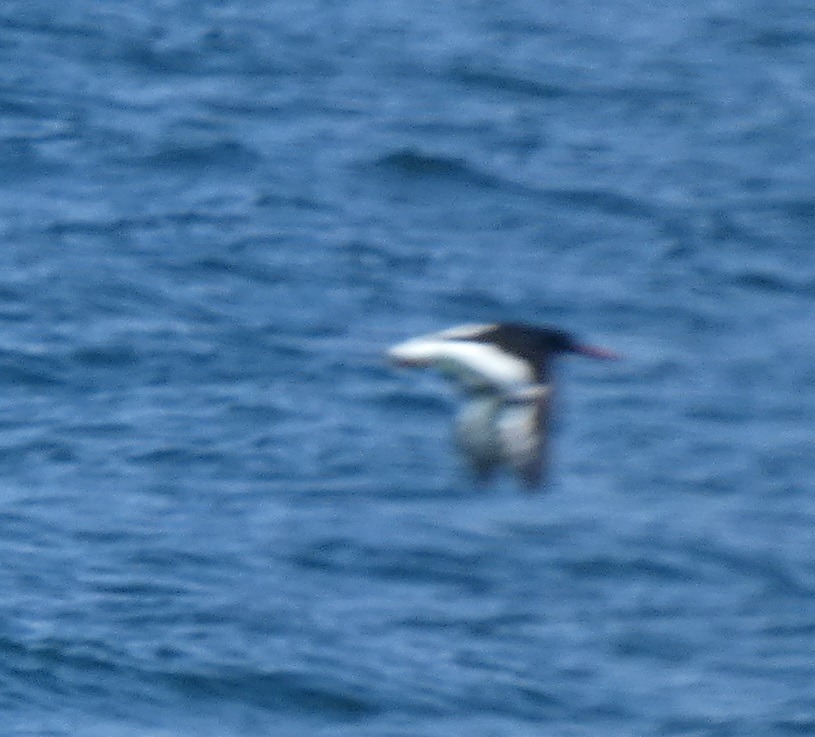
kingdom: Animalia
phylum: Chordata
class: Aves
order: Charadriiformes
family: Haematopodidae
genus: Haematopus
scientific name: Haematopus ostralegus
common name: Strandskade
